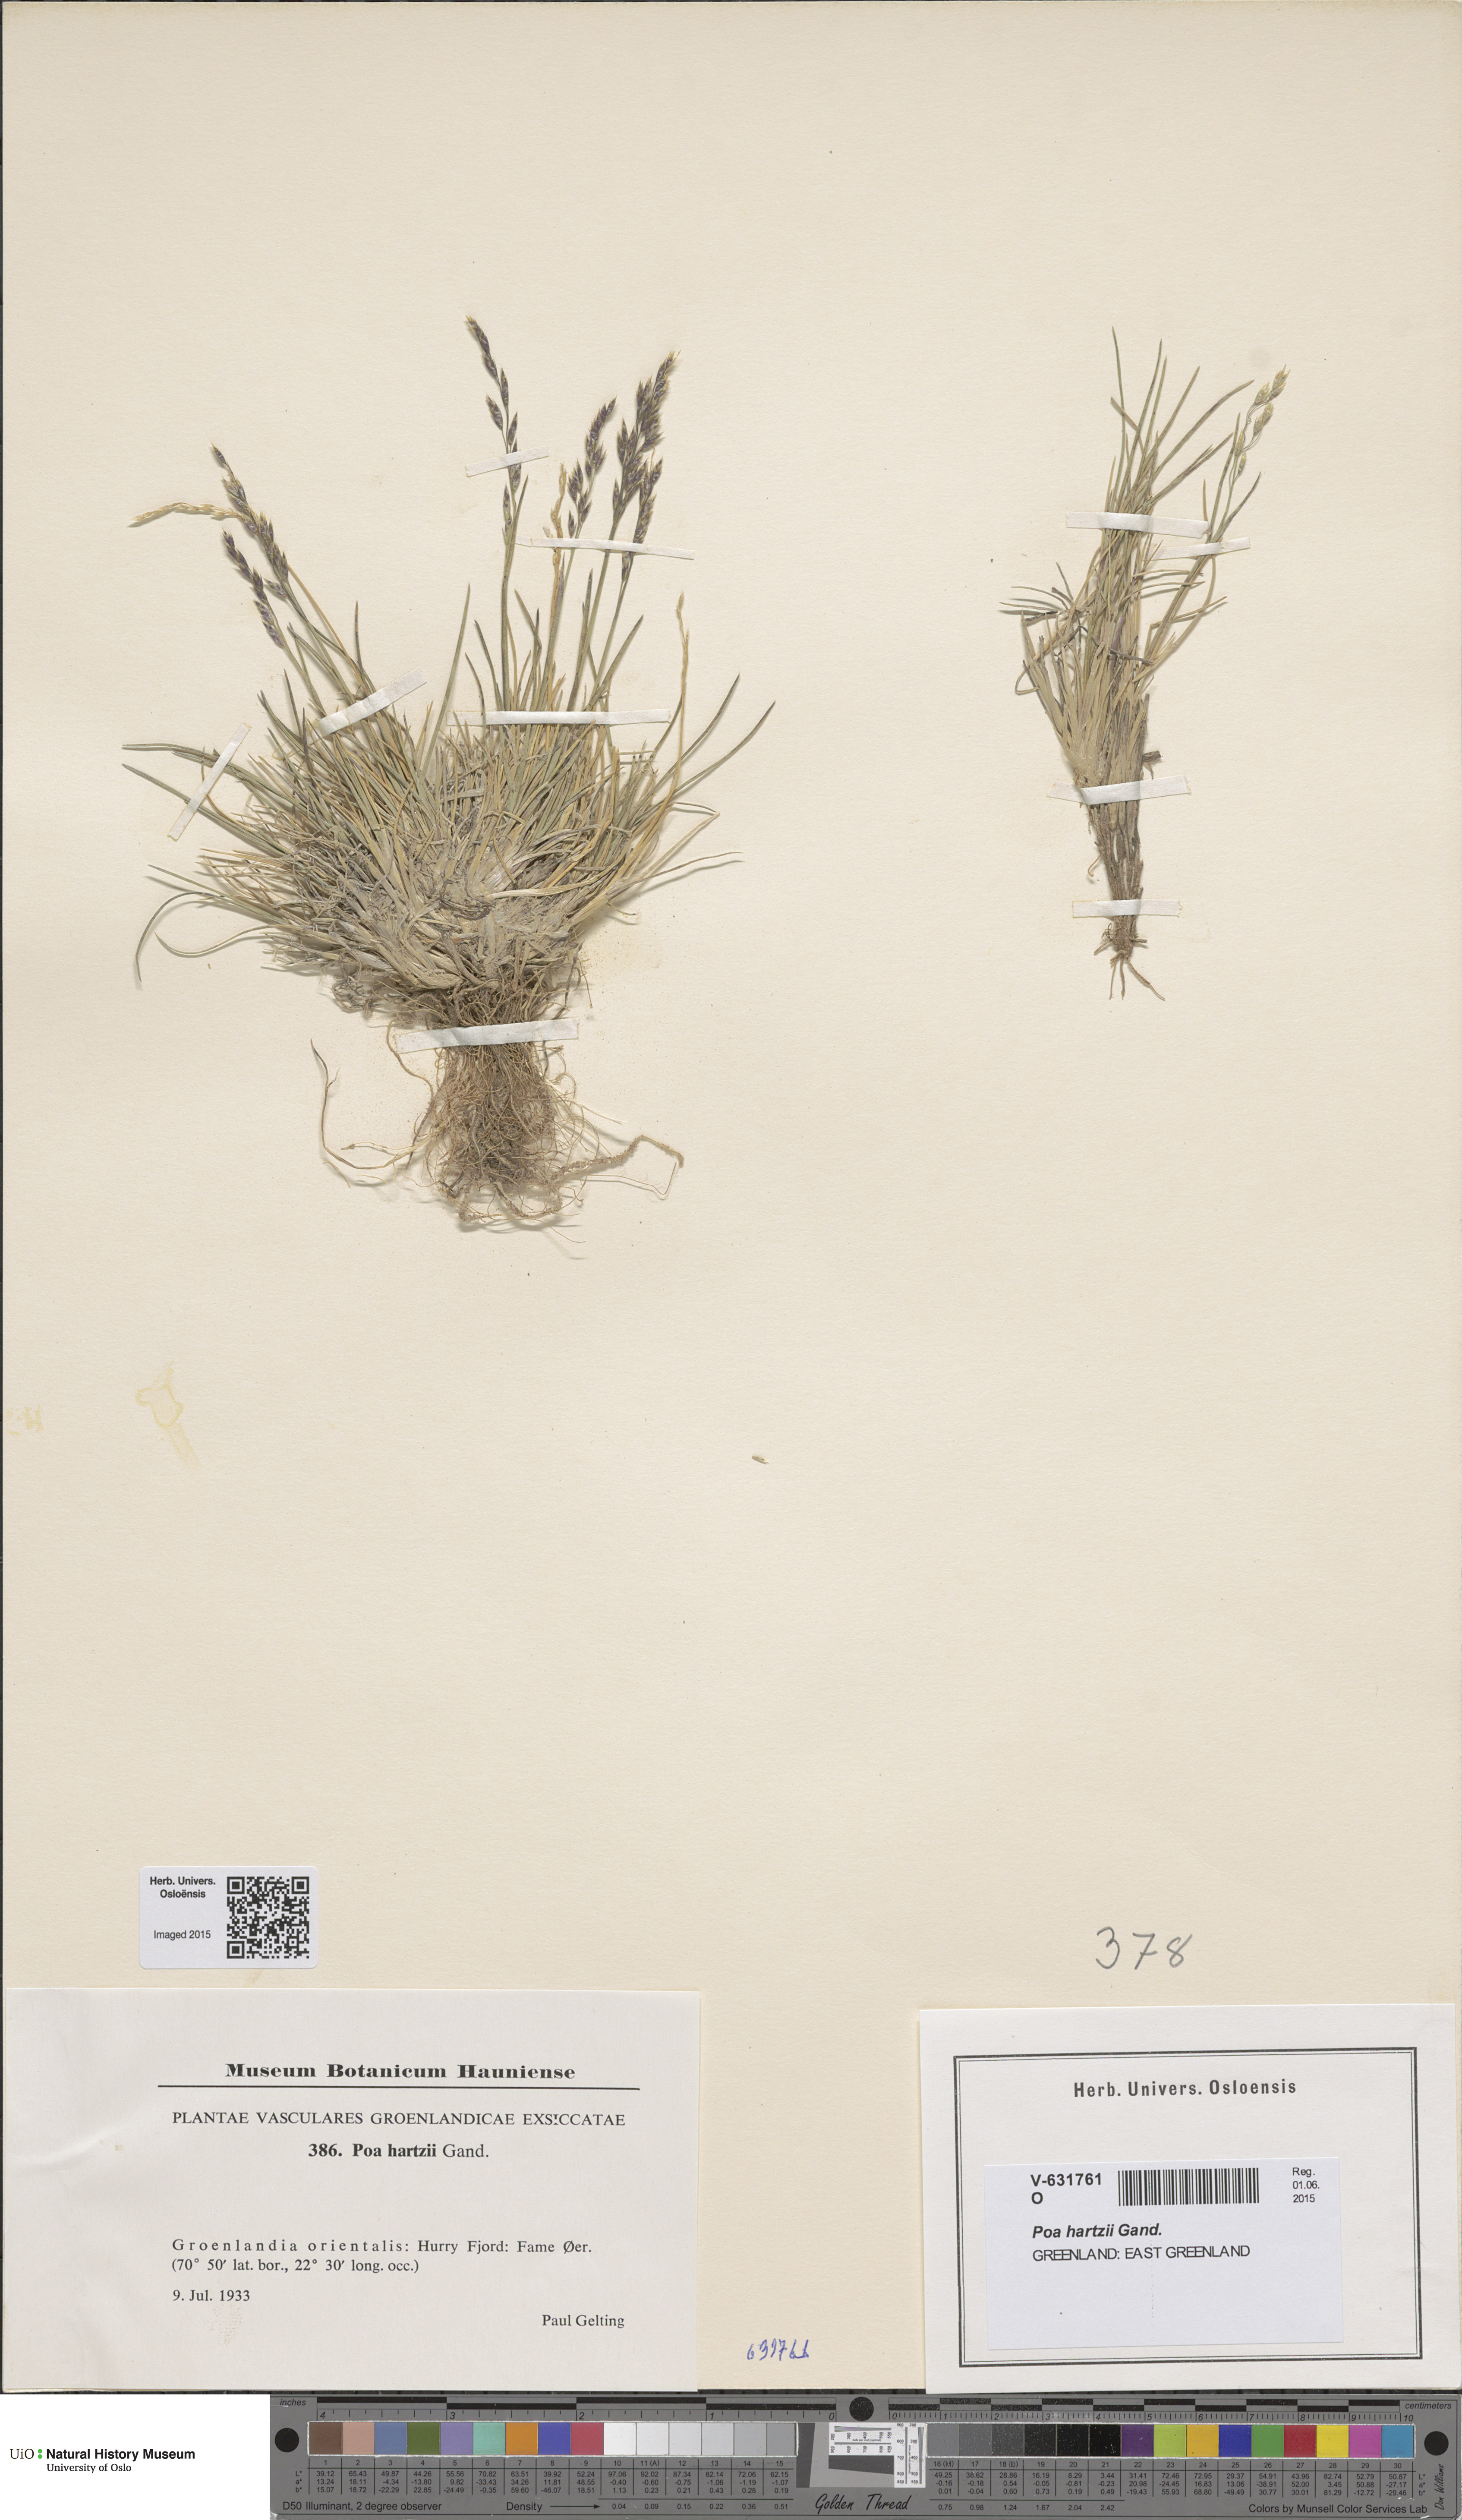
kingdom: Plantae
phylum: Tracheophyta
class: Liliopsida
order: Poales
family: Poaceae
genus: Poa
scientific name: Poa hartzii
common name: Hartz's bluegrass
